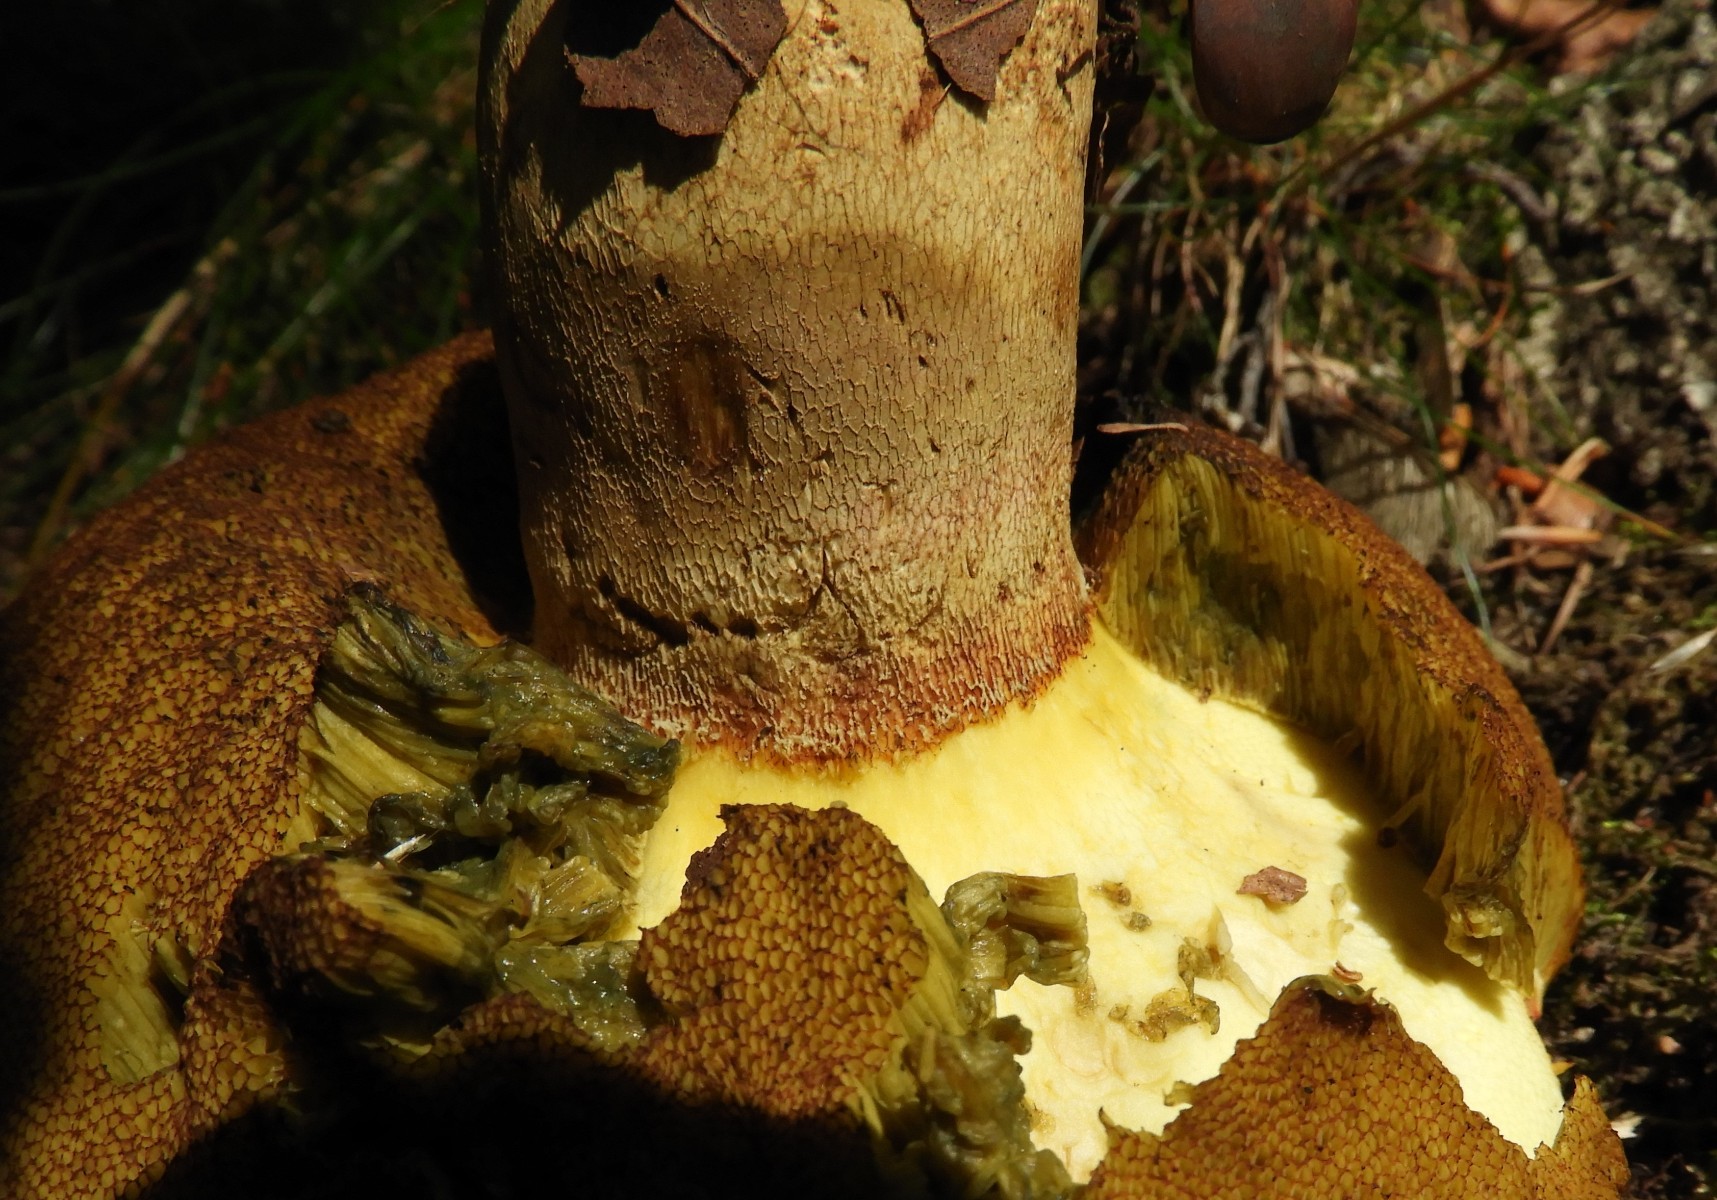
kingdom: Fungi
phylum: Basidiomycota
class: Agaricomycetes
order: Boletales
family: Boletaceae
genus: Suillellus
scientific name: Suillellus luridus
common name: netstokket indigorørhat
